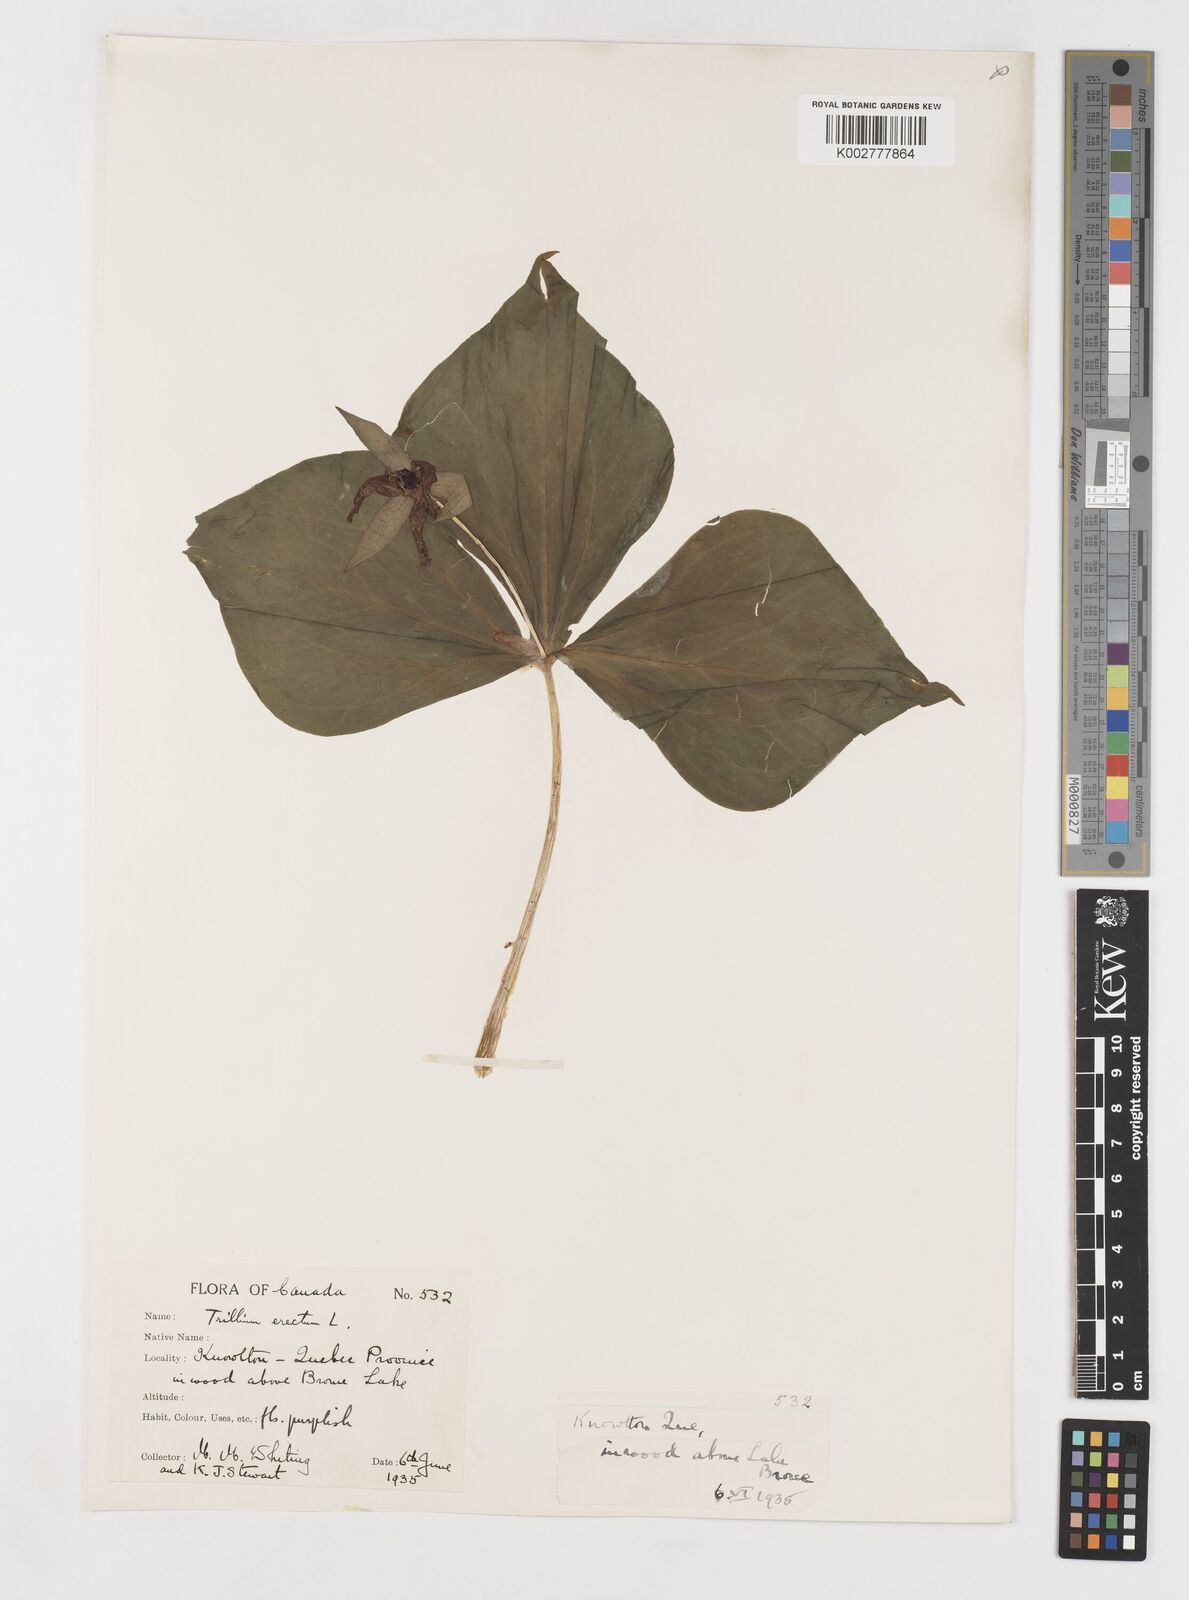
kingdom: Plantae
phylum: Tracheophyta
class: Liliopsida
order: Liliales
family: Melanthiaceae
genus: Trillium
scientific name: Trillium erectum
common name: Purple trillium
